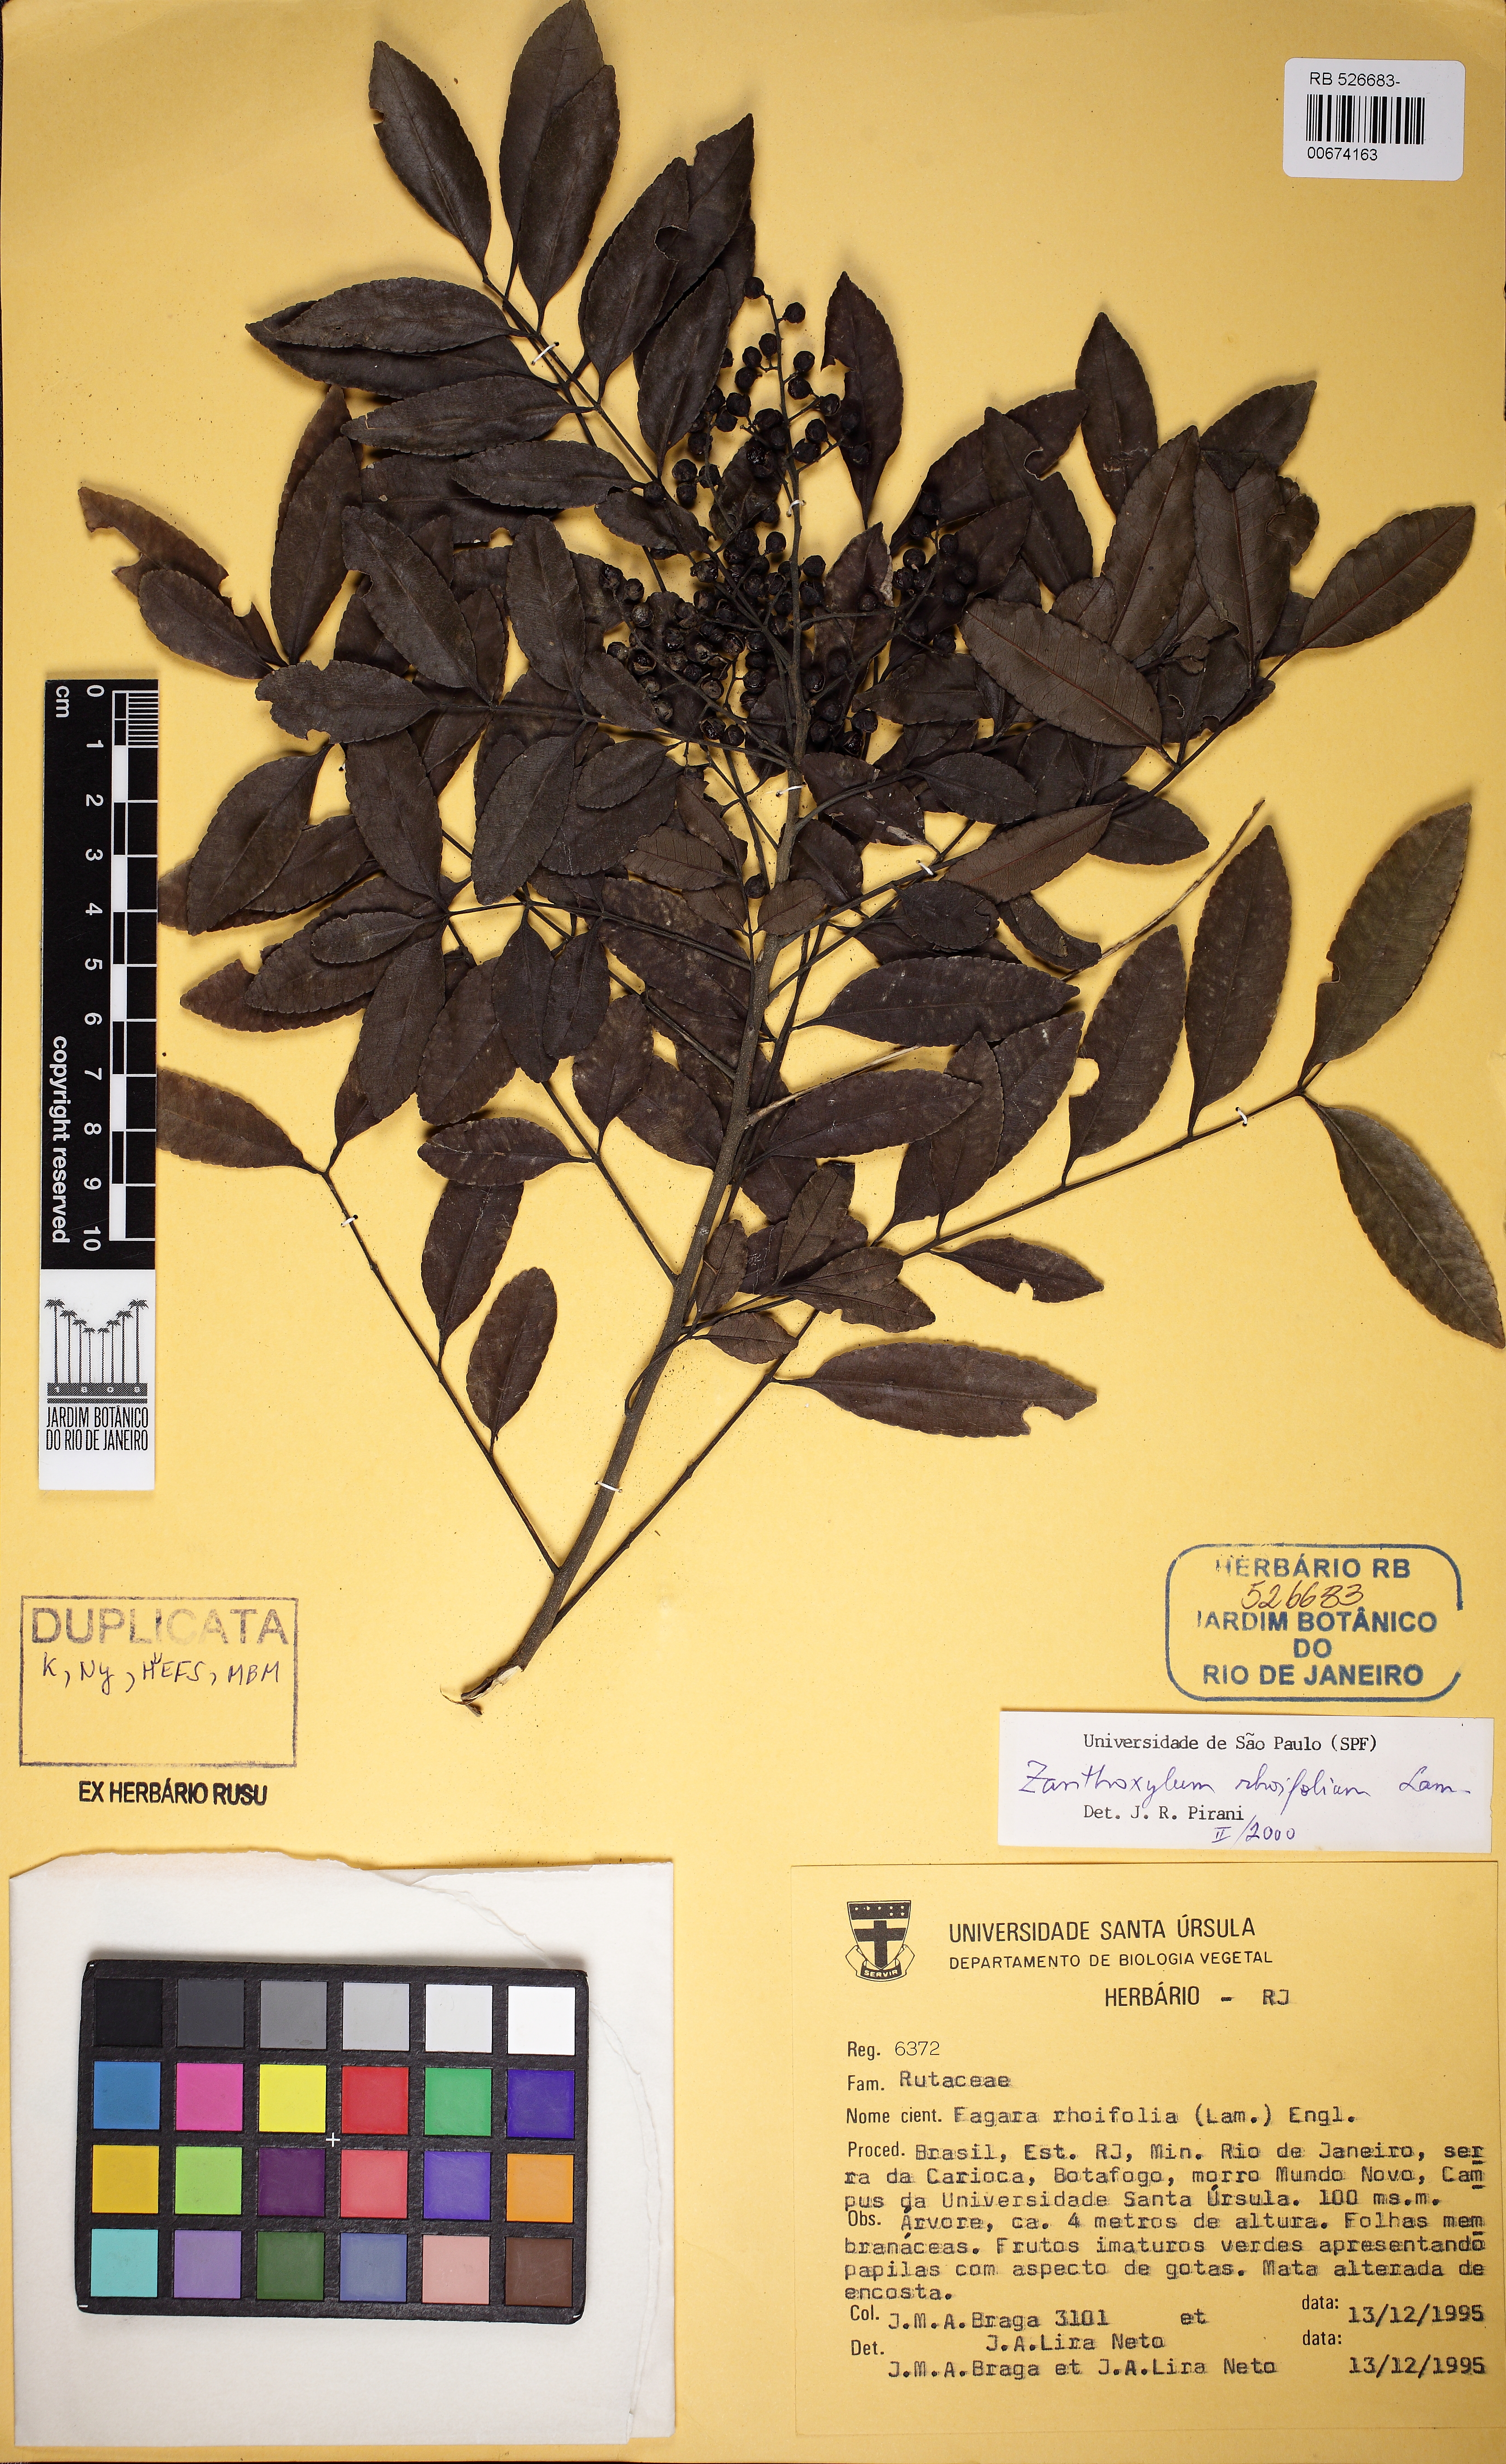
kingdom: Plantae
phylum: Tracheophyta
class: Magnoliopsida
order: Sapindales
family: Rutaceae
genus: Zanthoxylum
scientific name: Zanthoxylum rhoifolium
